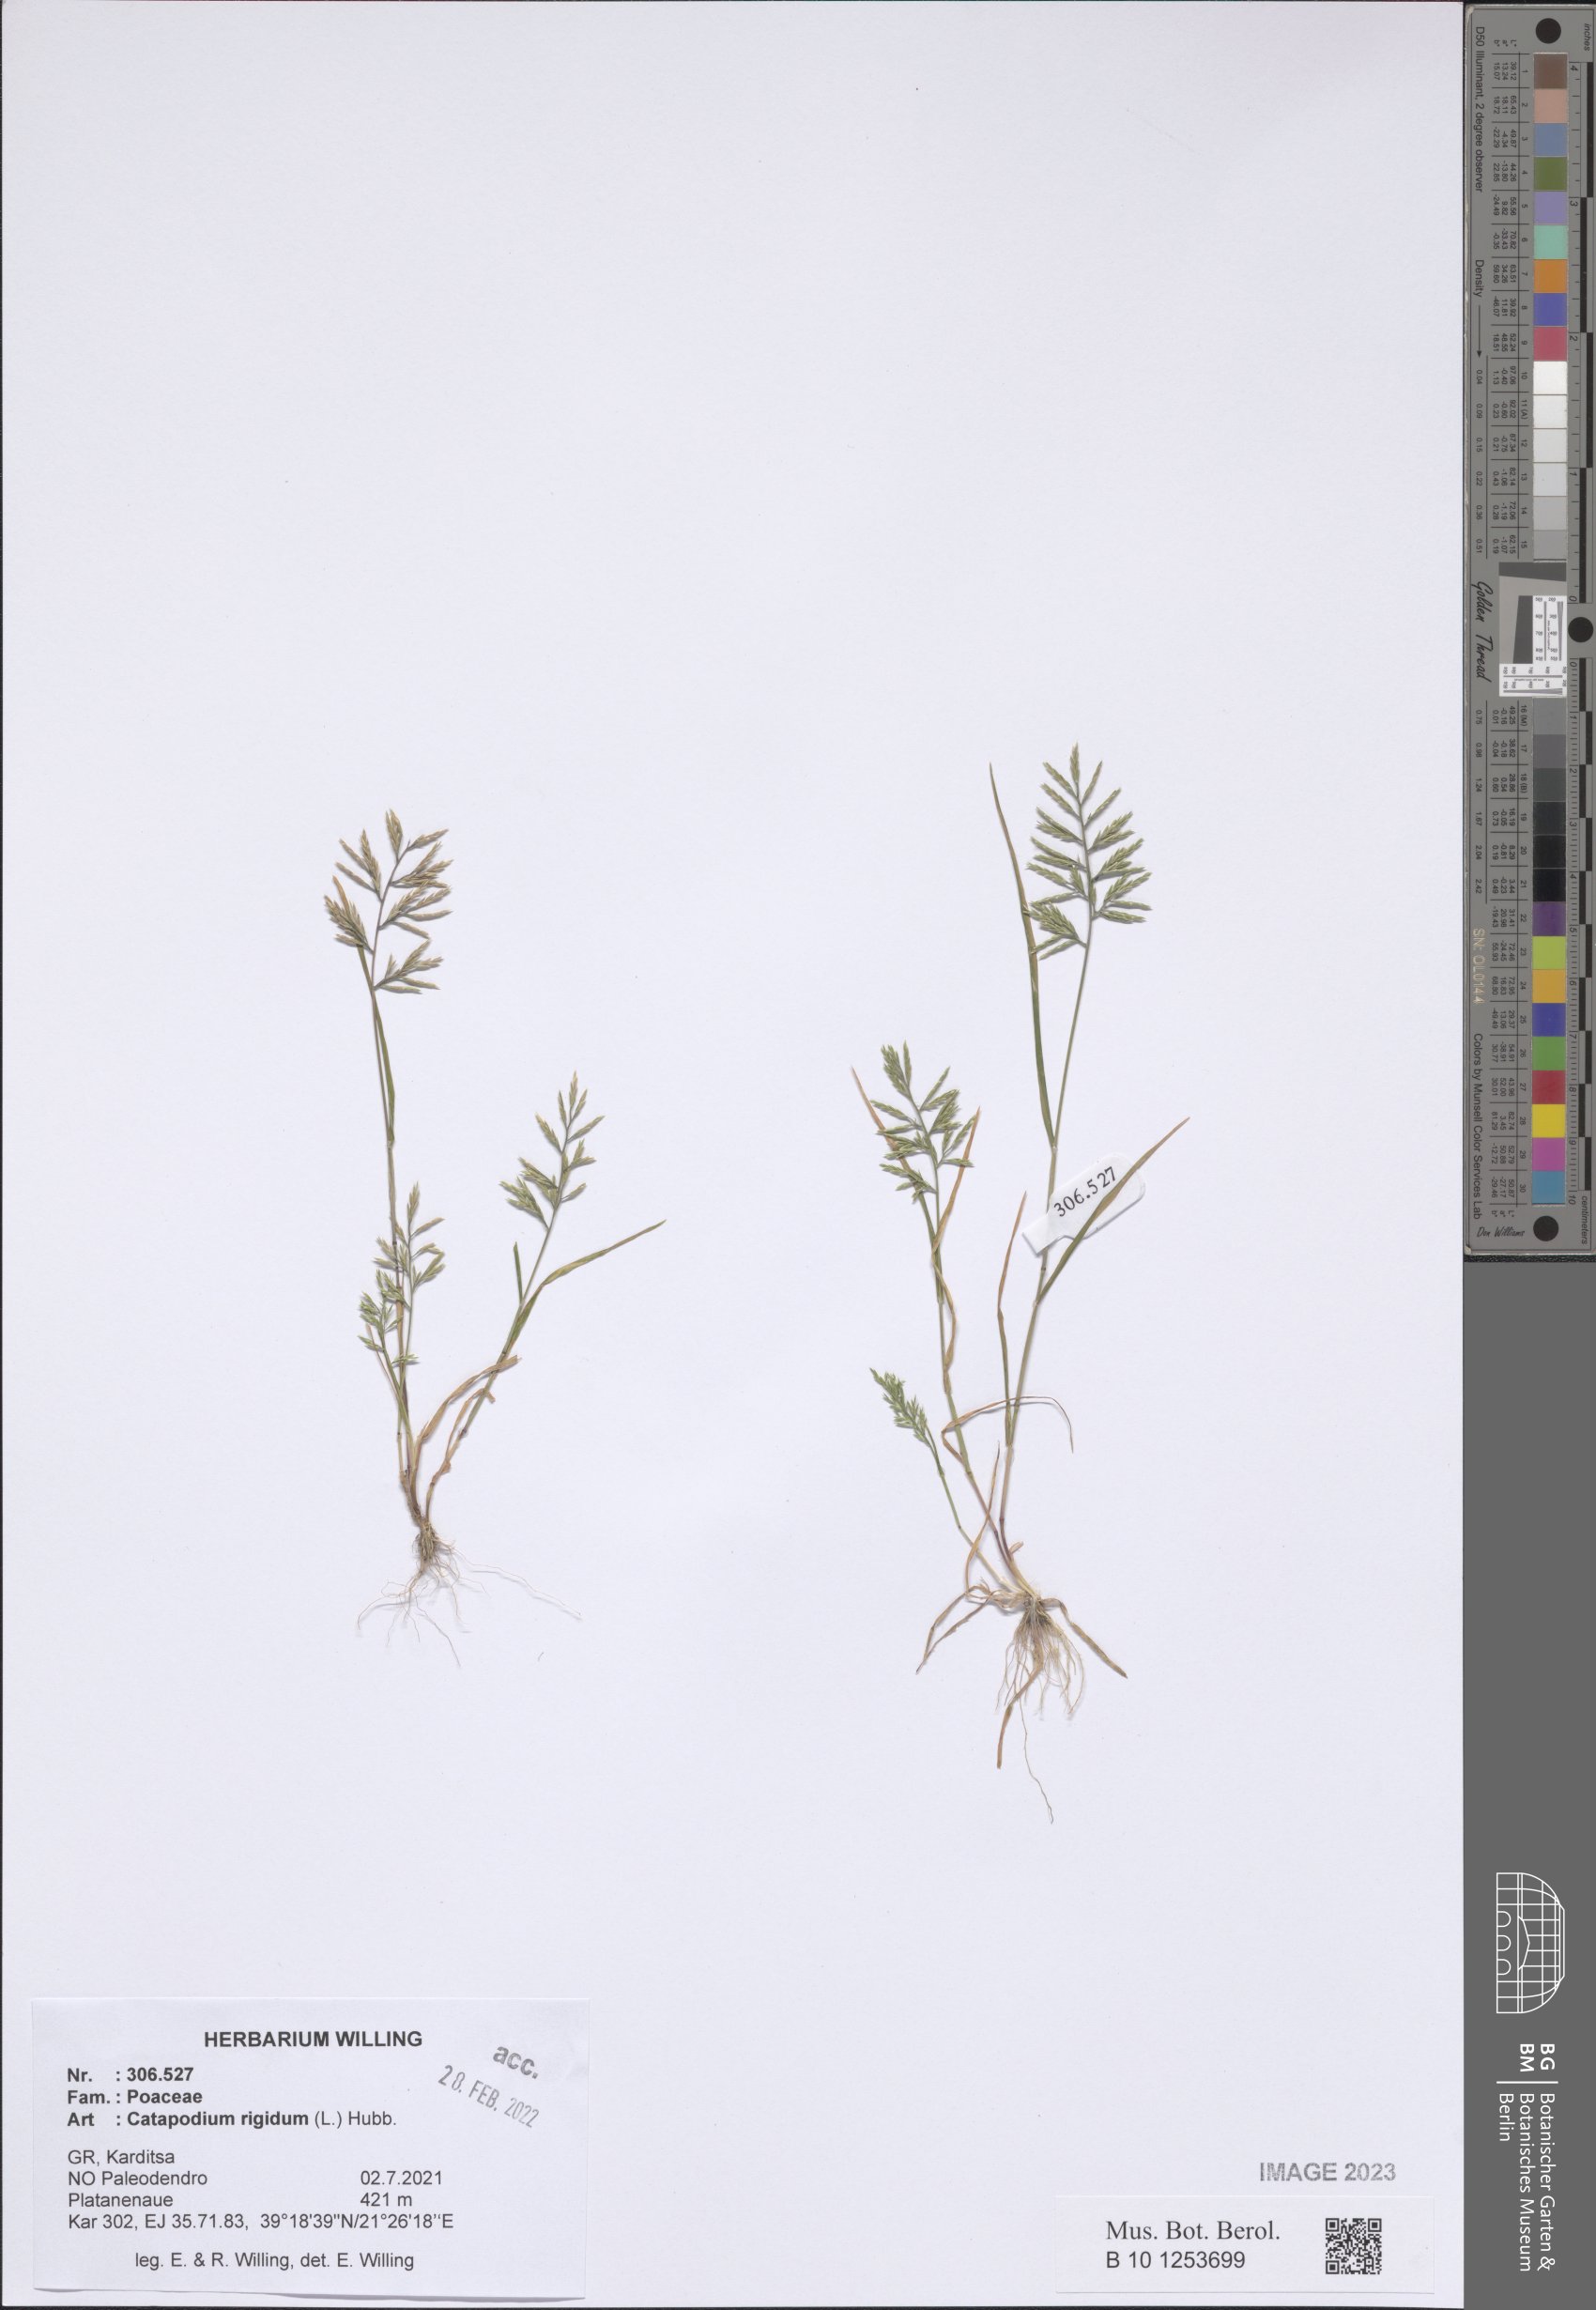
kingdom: Plantae
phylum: Tracheophyta
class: Liliopsida
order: Poales
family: Poaceae
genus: Catapodium
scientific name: Catapodium rigidum
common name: Fern-grass
